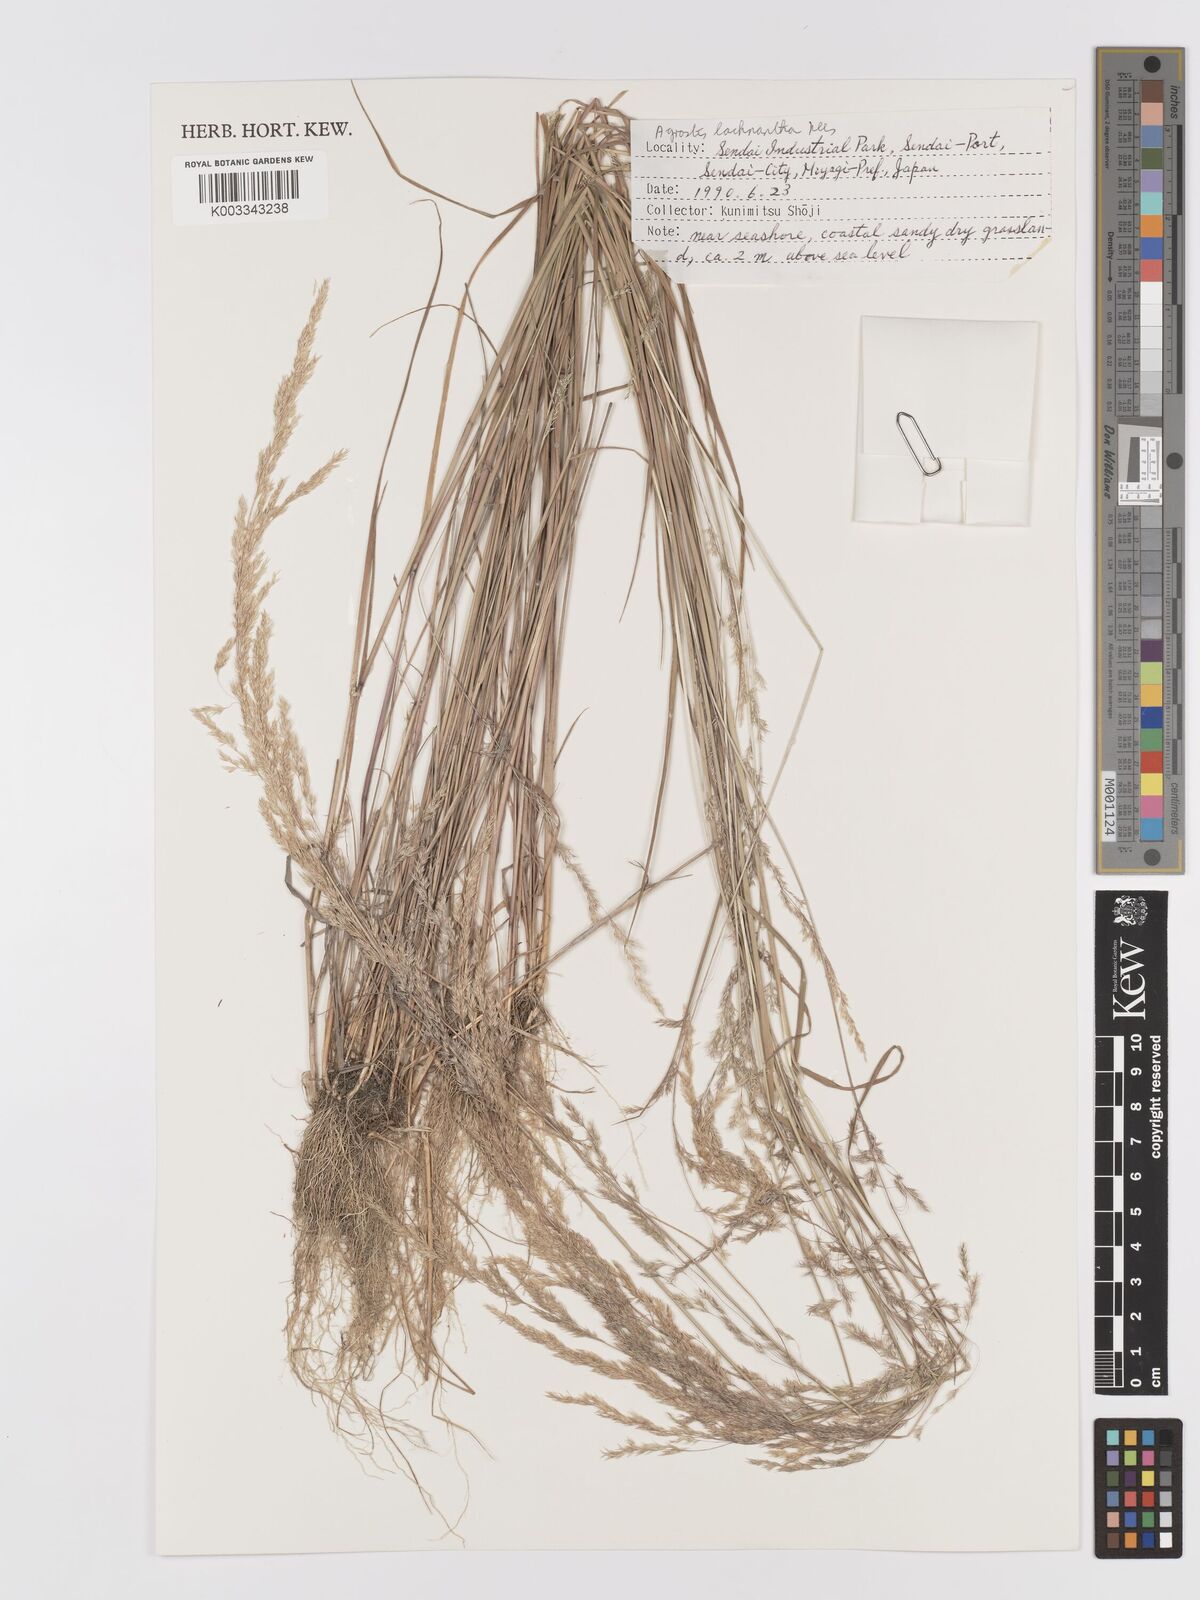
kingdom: Plantae
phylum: Tracheophyta
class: Liliopsida
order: Poales
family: Poaceae
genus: Lachnagrostis
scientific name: Lachnagrostis lachnantha
